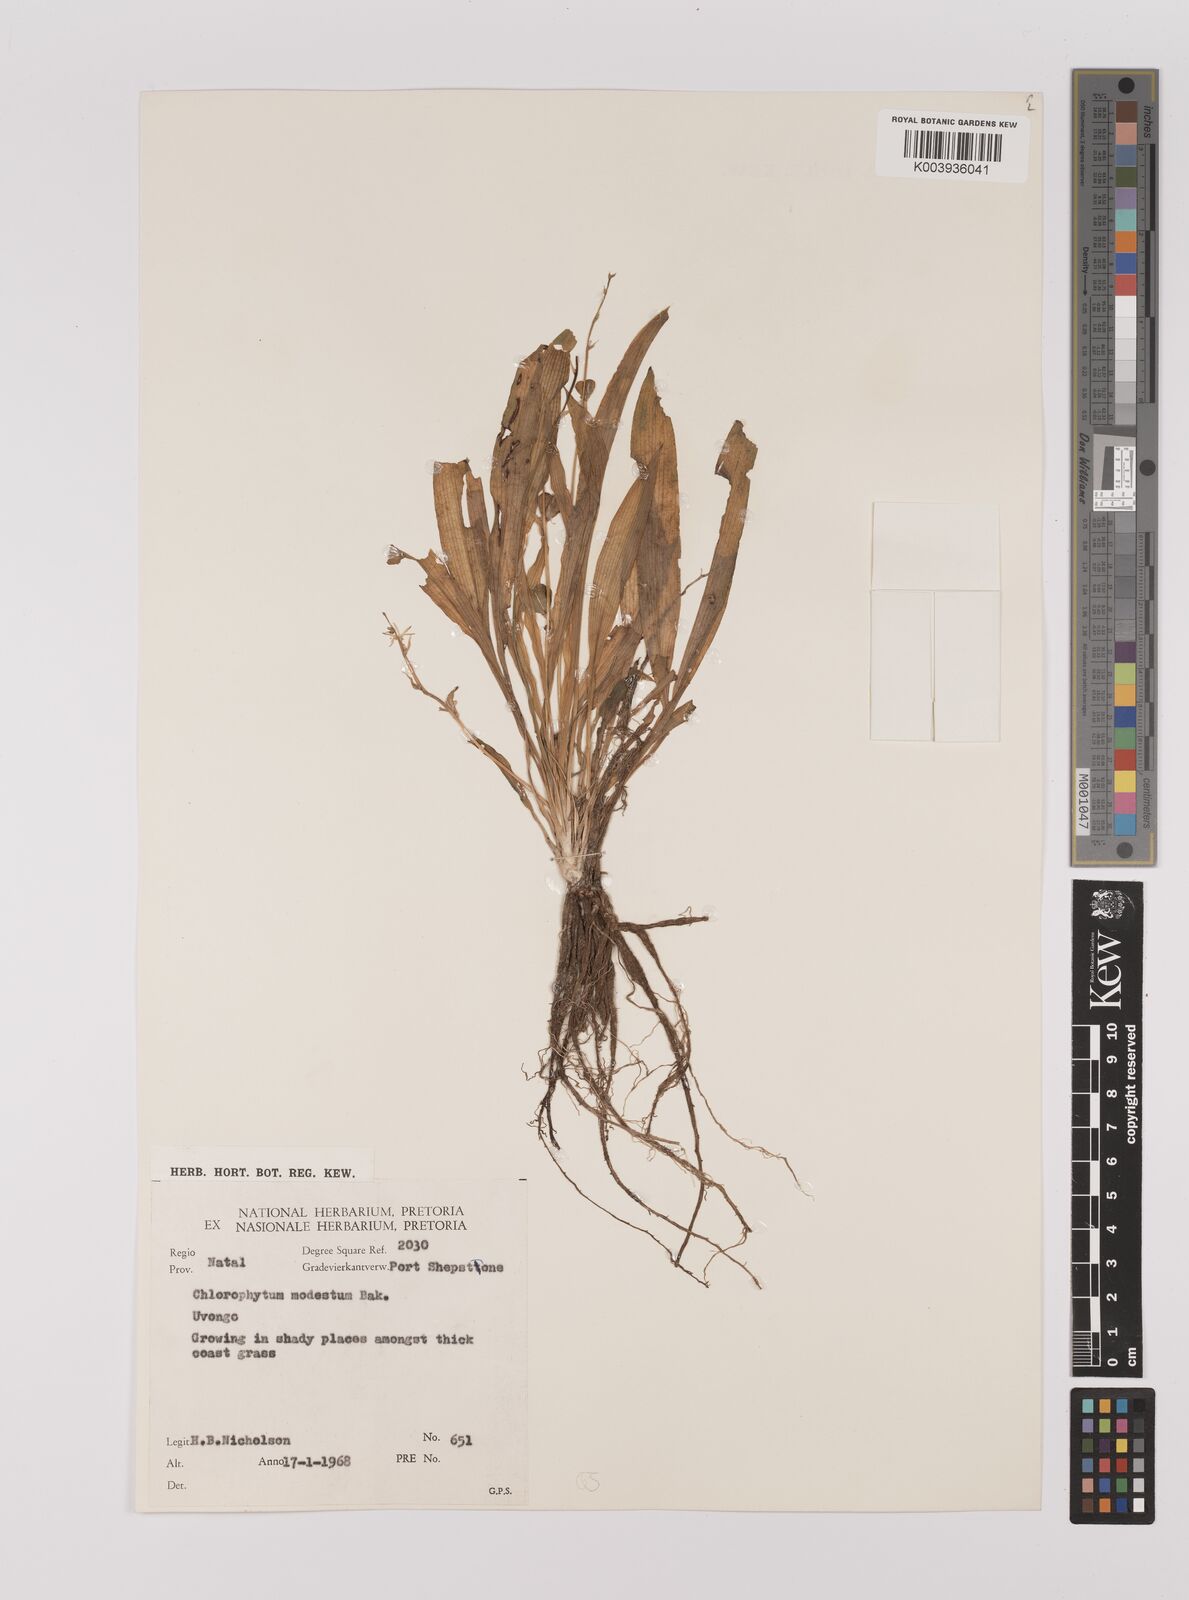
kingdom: Plantae
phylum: Tracheophyta
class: Liliopsida
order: Asparagales
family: Asparagaceae
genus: Chlorophytum
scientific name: Chlorophytum modestum
